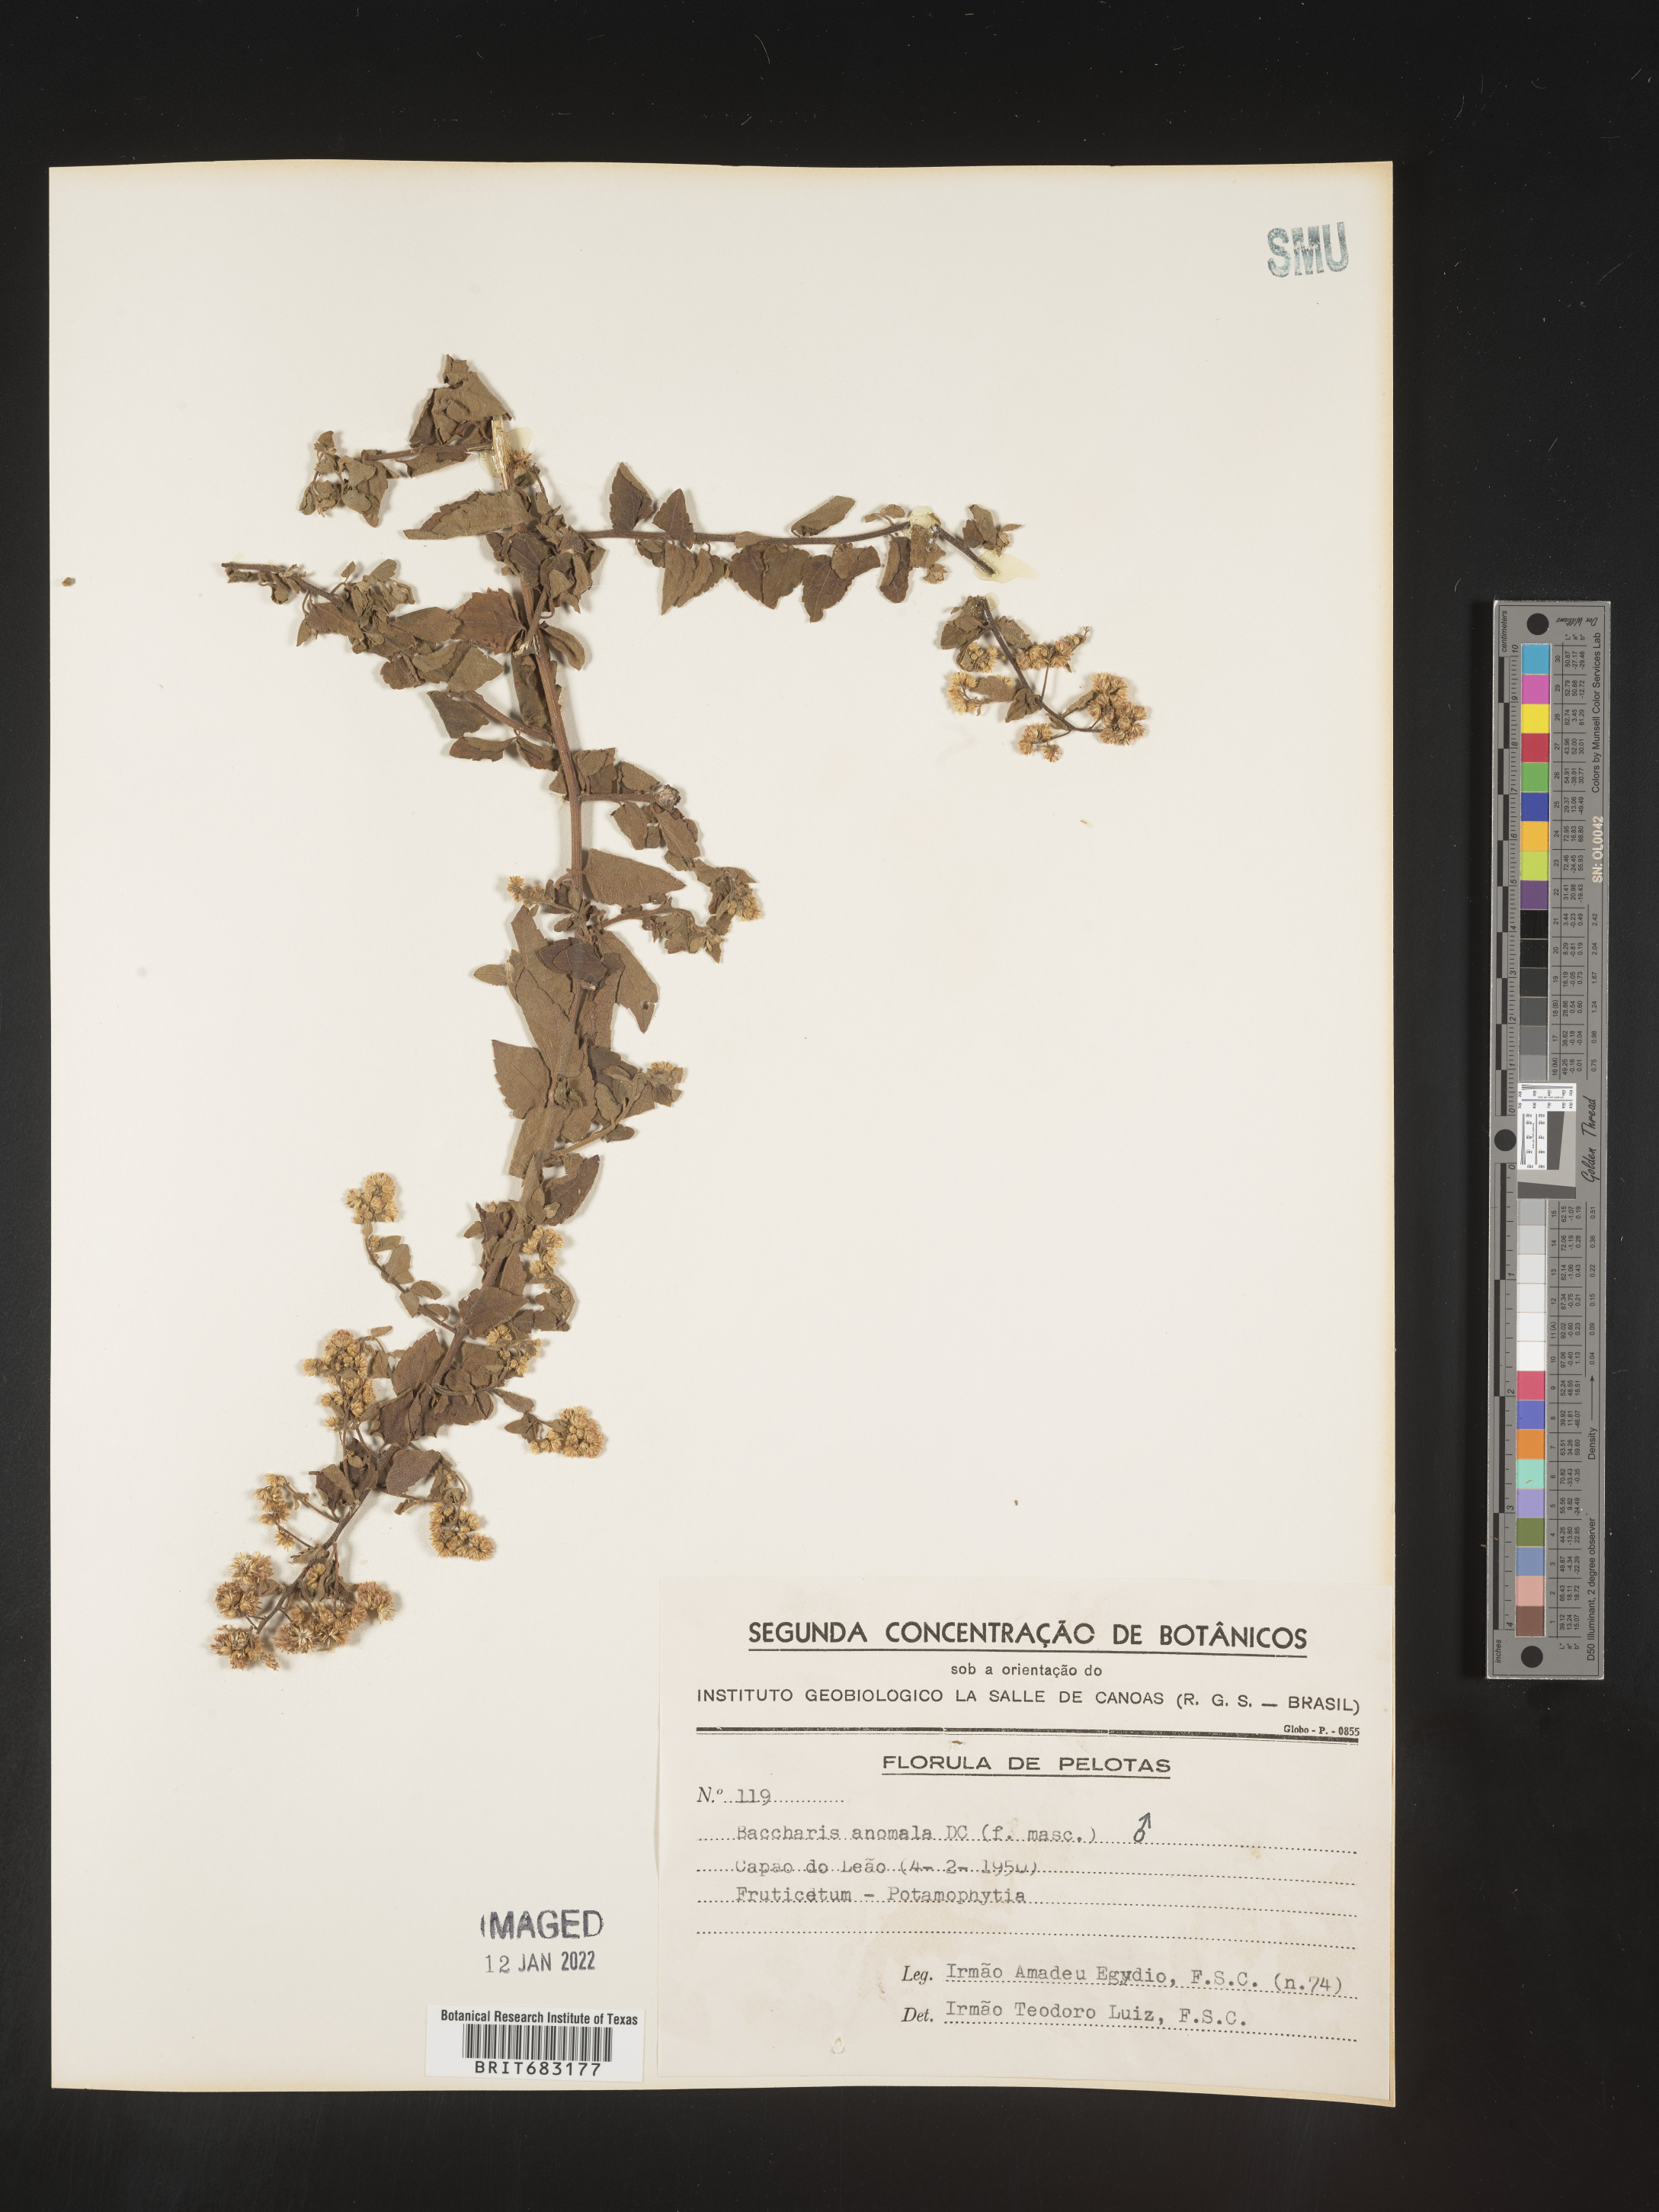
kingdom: Plantae
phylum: Tracheophyta
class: Magnoliopsida
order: Asterales
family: Asteraceae
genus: Baccharis
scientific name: Baccharis
